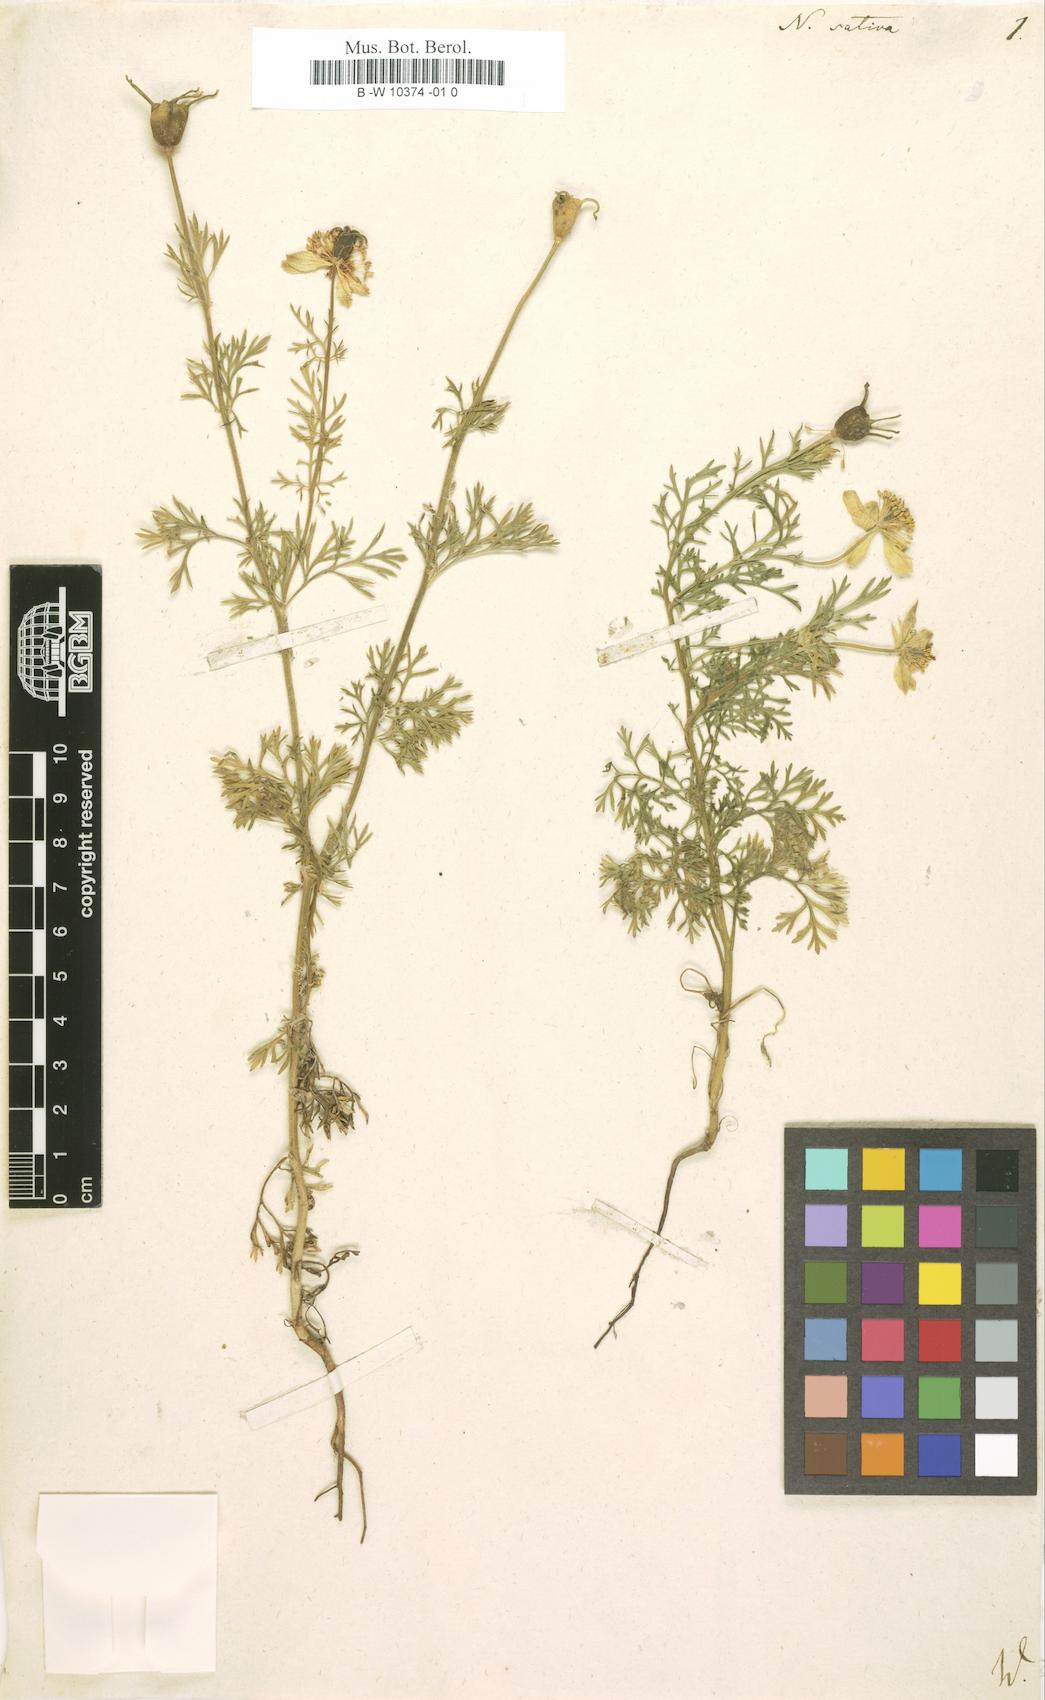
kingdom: Plantae
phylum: Tracheophyta
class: Magnoliopsida
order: Ranunculales
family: Ranunculaceae
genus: Nigella
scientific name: Nigella sativa
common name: Black-cumin
